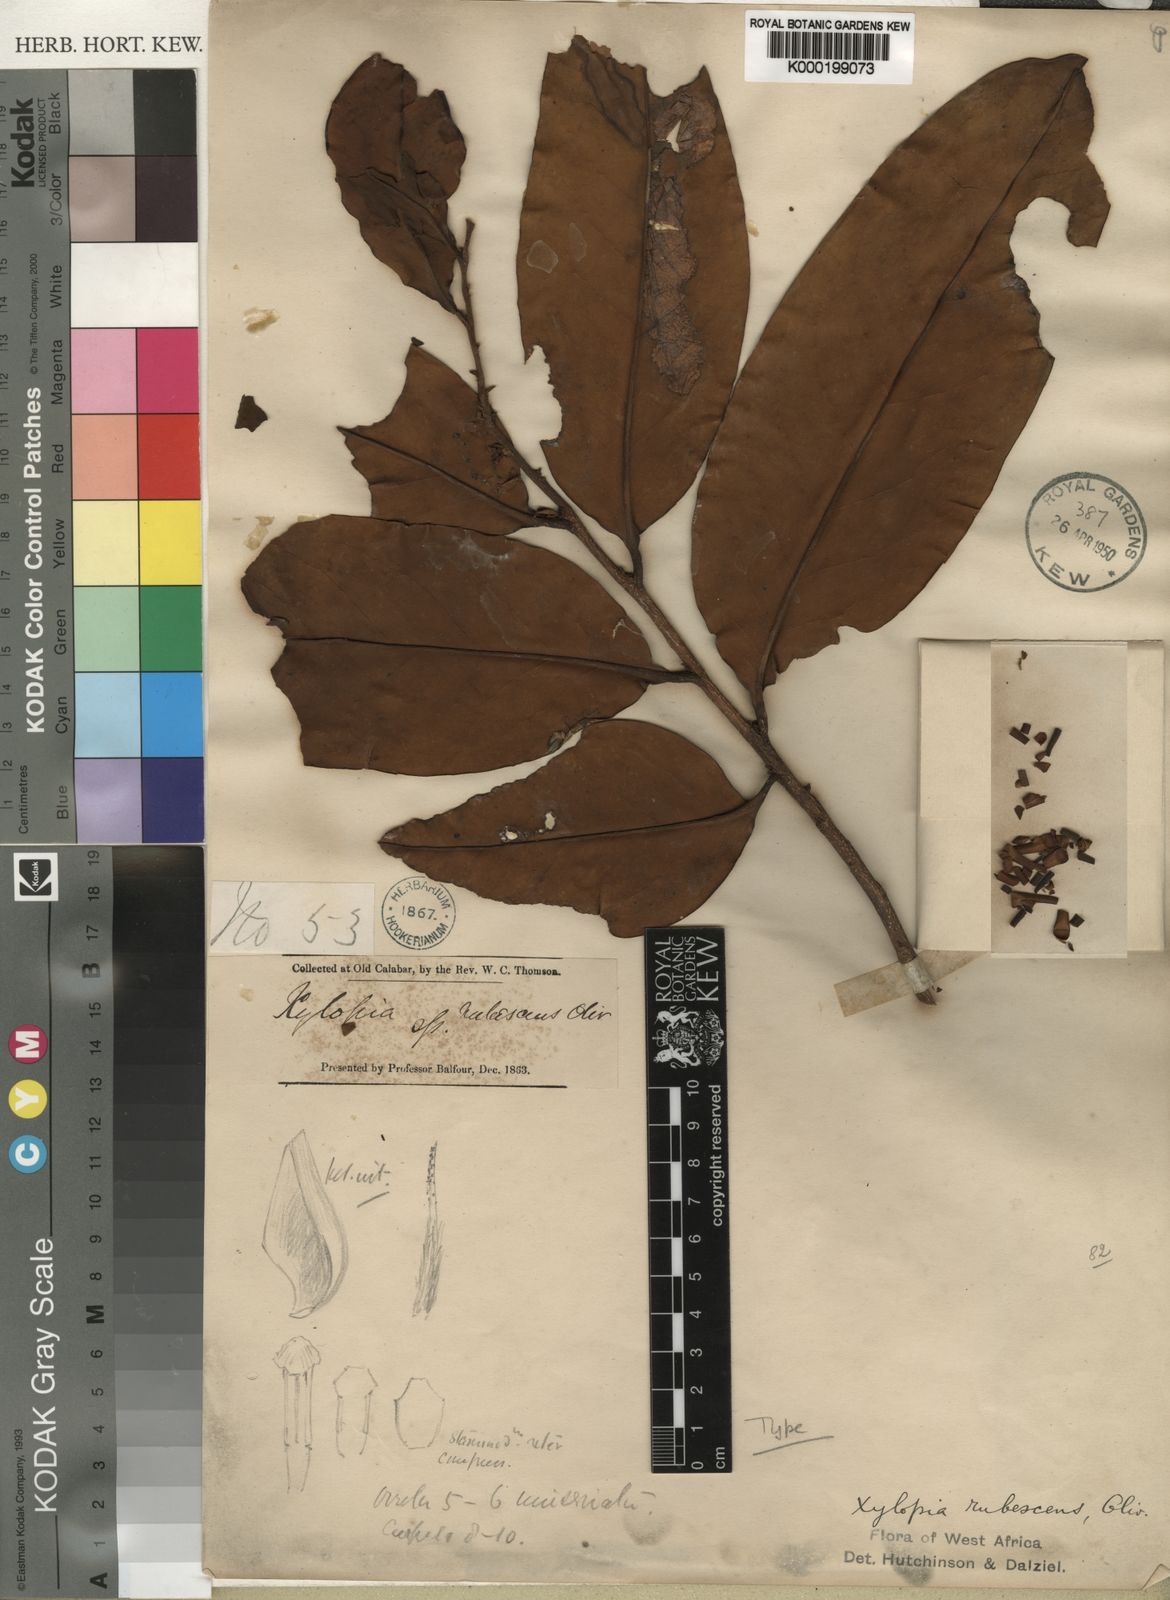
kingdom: Plantae
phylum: Tracheophyta
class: Magnoliopsida
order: Magnoliales
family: Annonaceae
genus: Xylopia
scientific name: Xylopia rubescens
